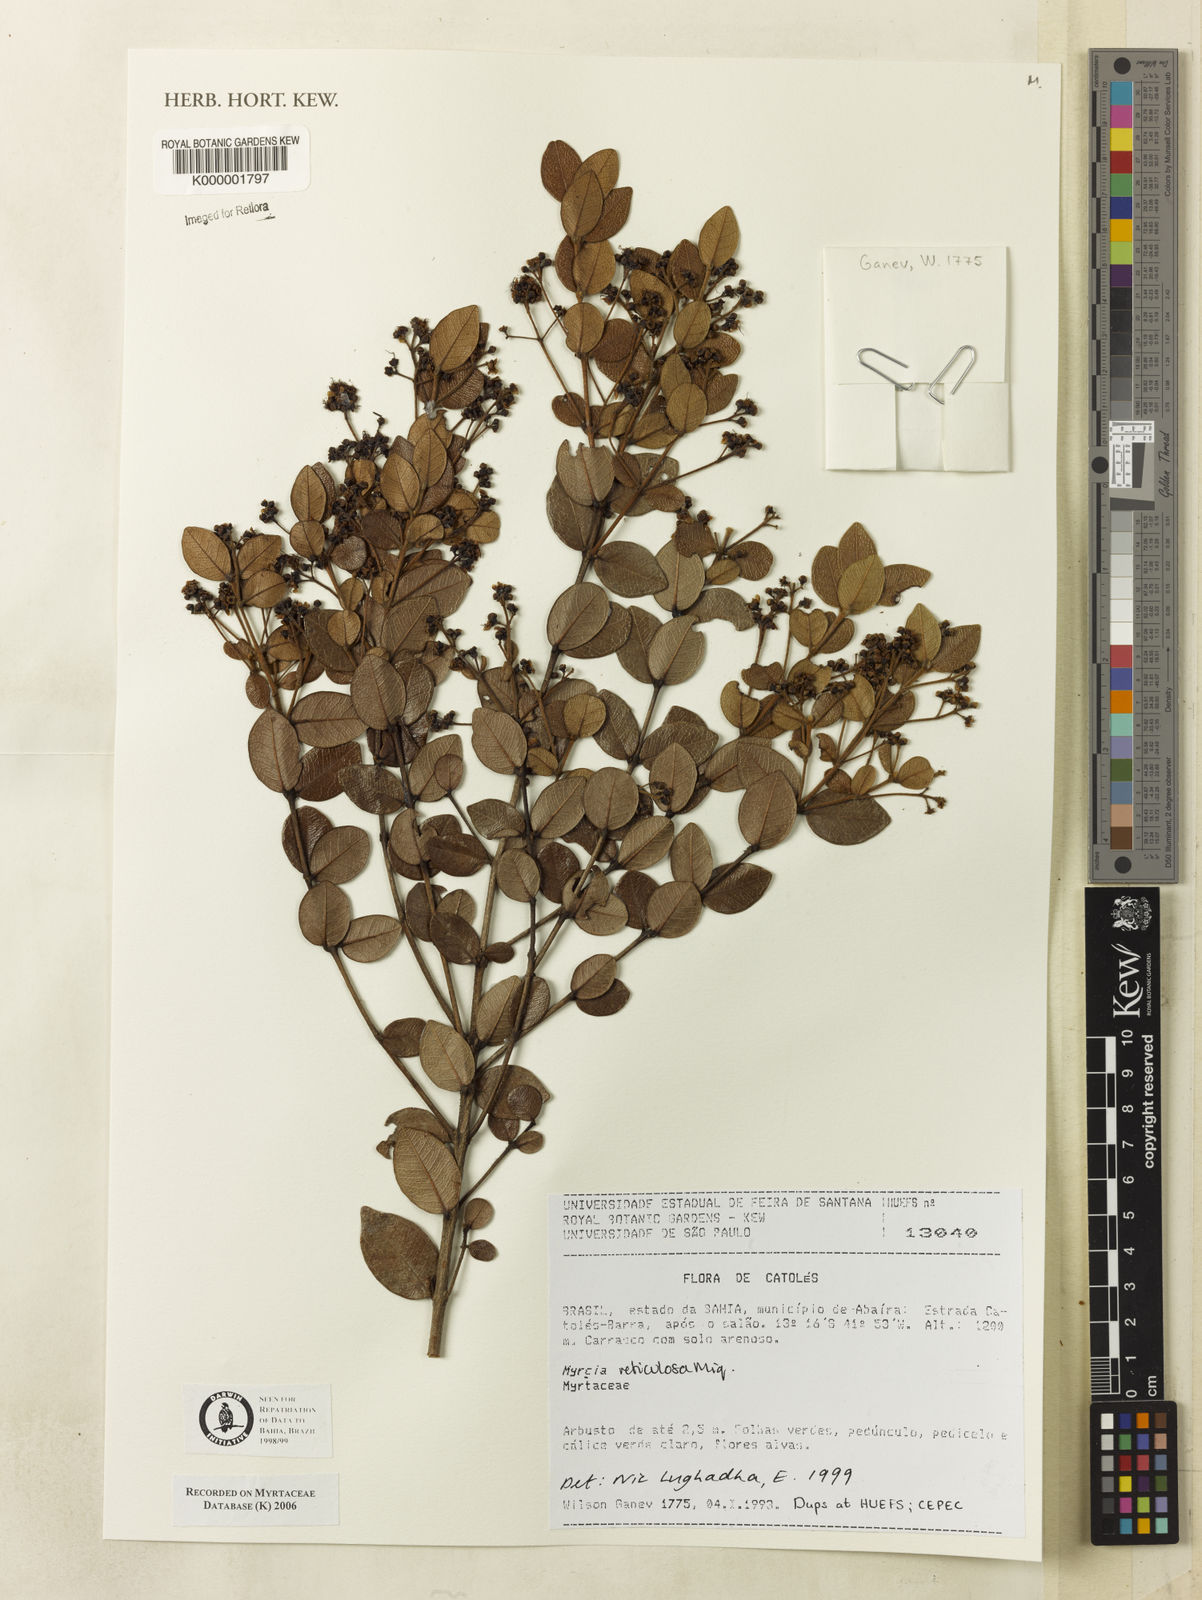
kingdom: Plantae
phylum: Tracheophyta
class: Magnoliopsida
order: Myrtales
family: Myrtaceae
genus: Myrcia
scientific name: Myrcia reticulosa
